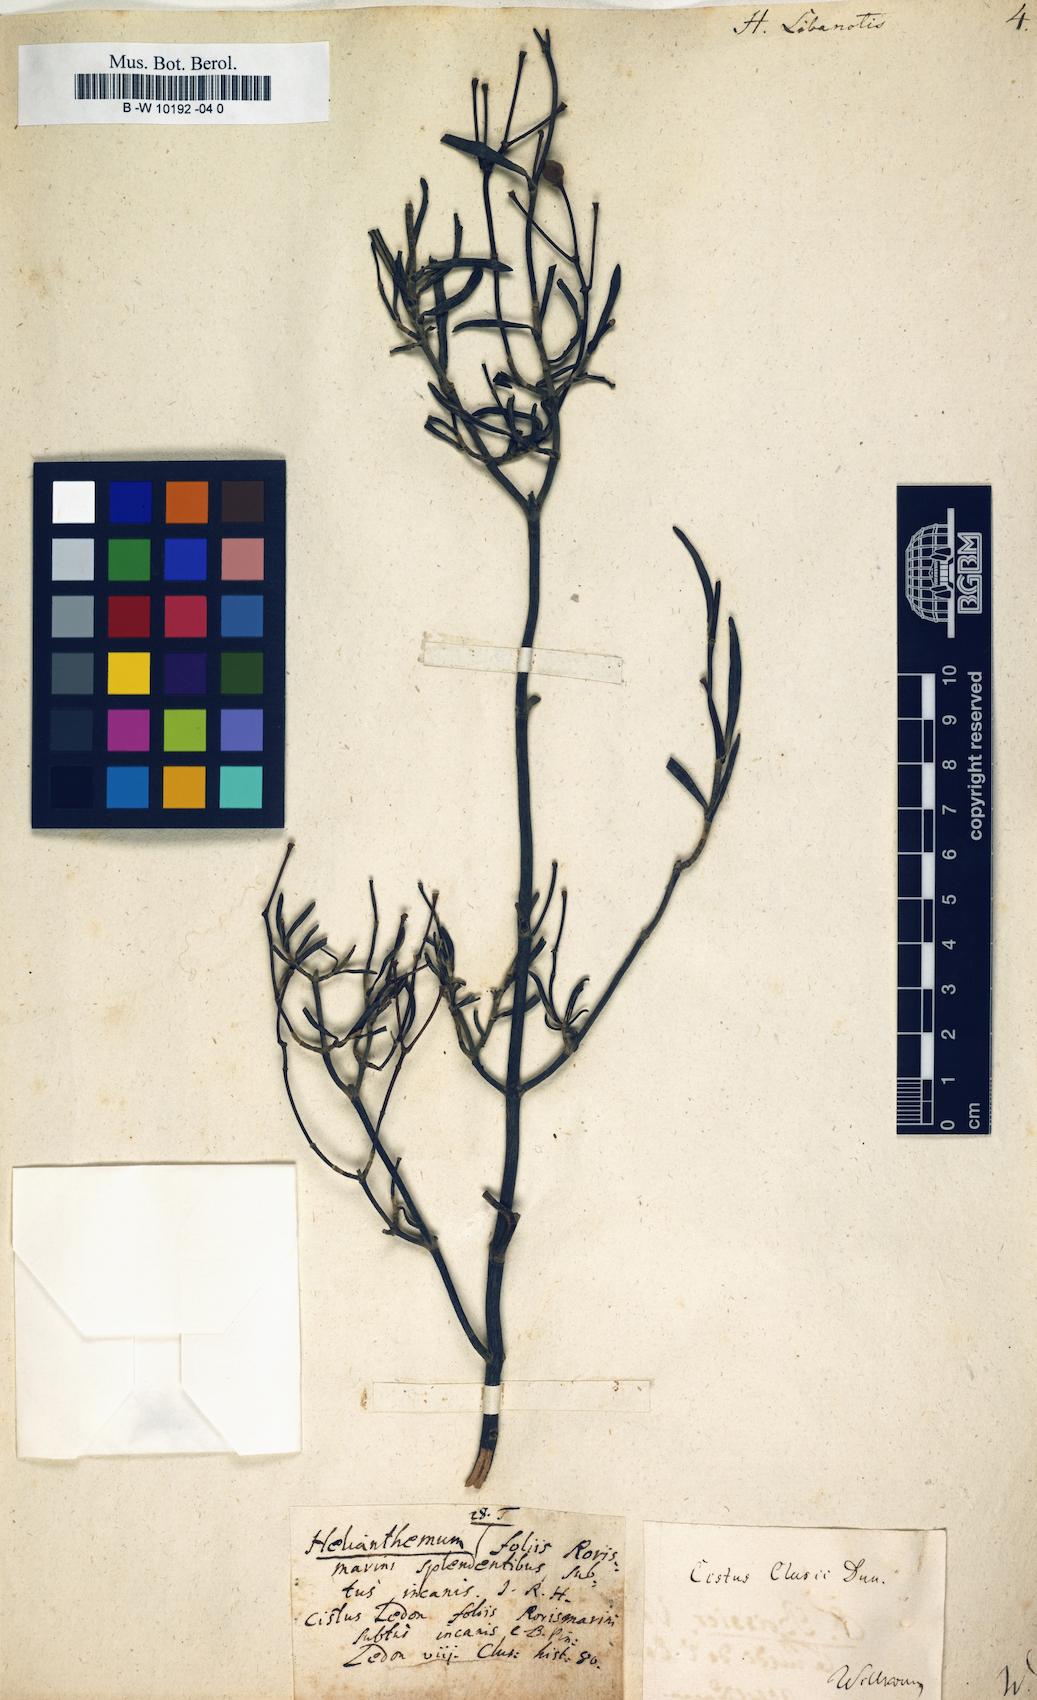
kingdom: Plantae
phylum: Tracheophyta
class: Magnoliopsida
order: Malvales
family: Cistaceae
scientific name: Cistaceae
